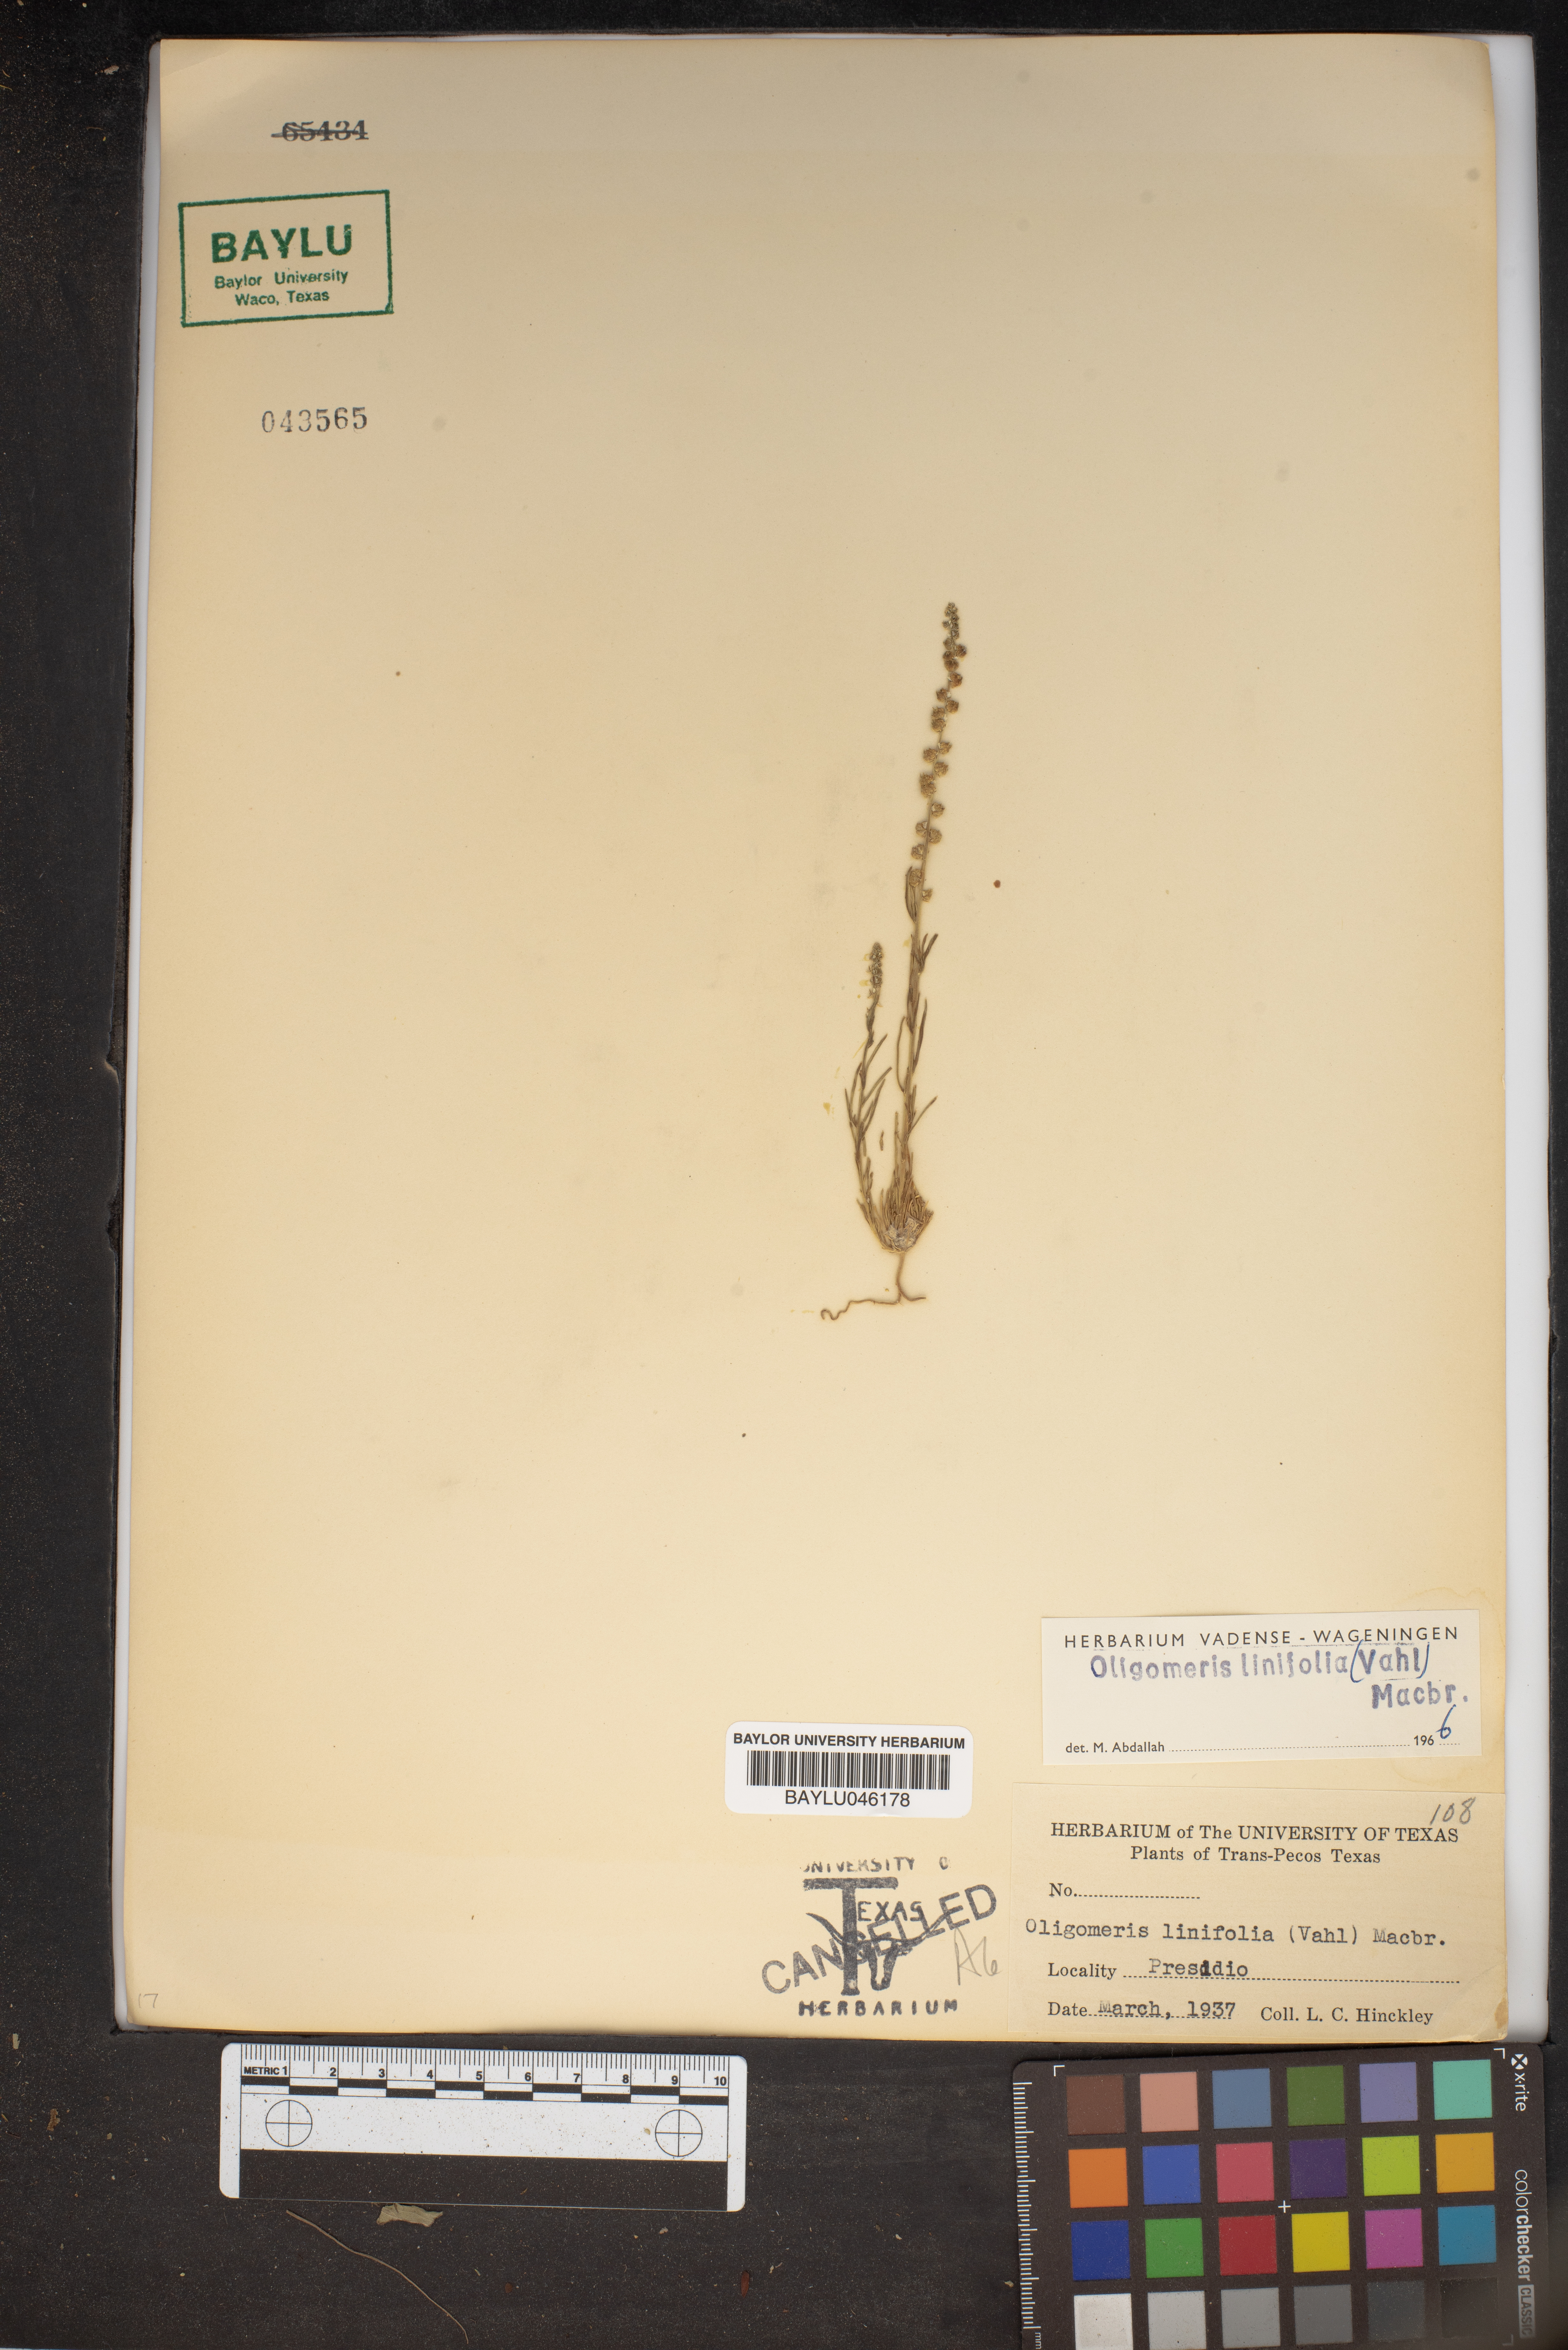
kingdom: Plantae
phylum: Tracheophyta
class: Magnoliopsida
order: Brassicales
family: Resedaceae
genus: Oligomeris
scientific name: Oligomeris linifolia
